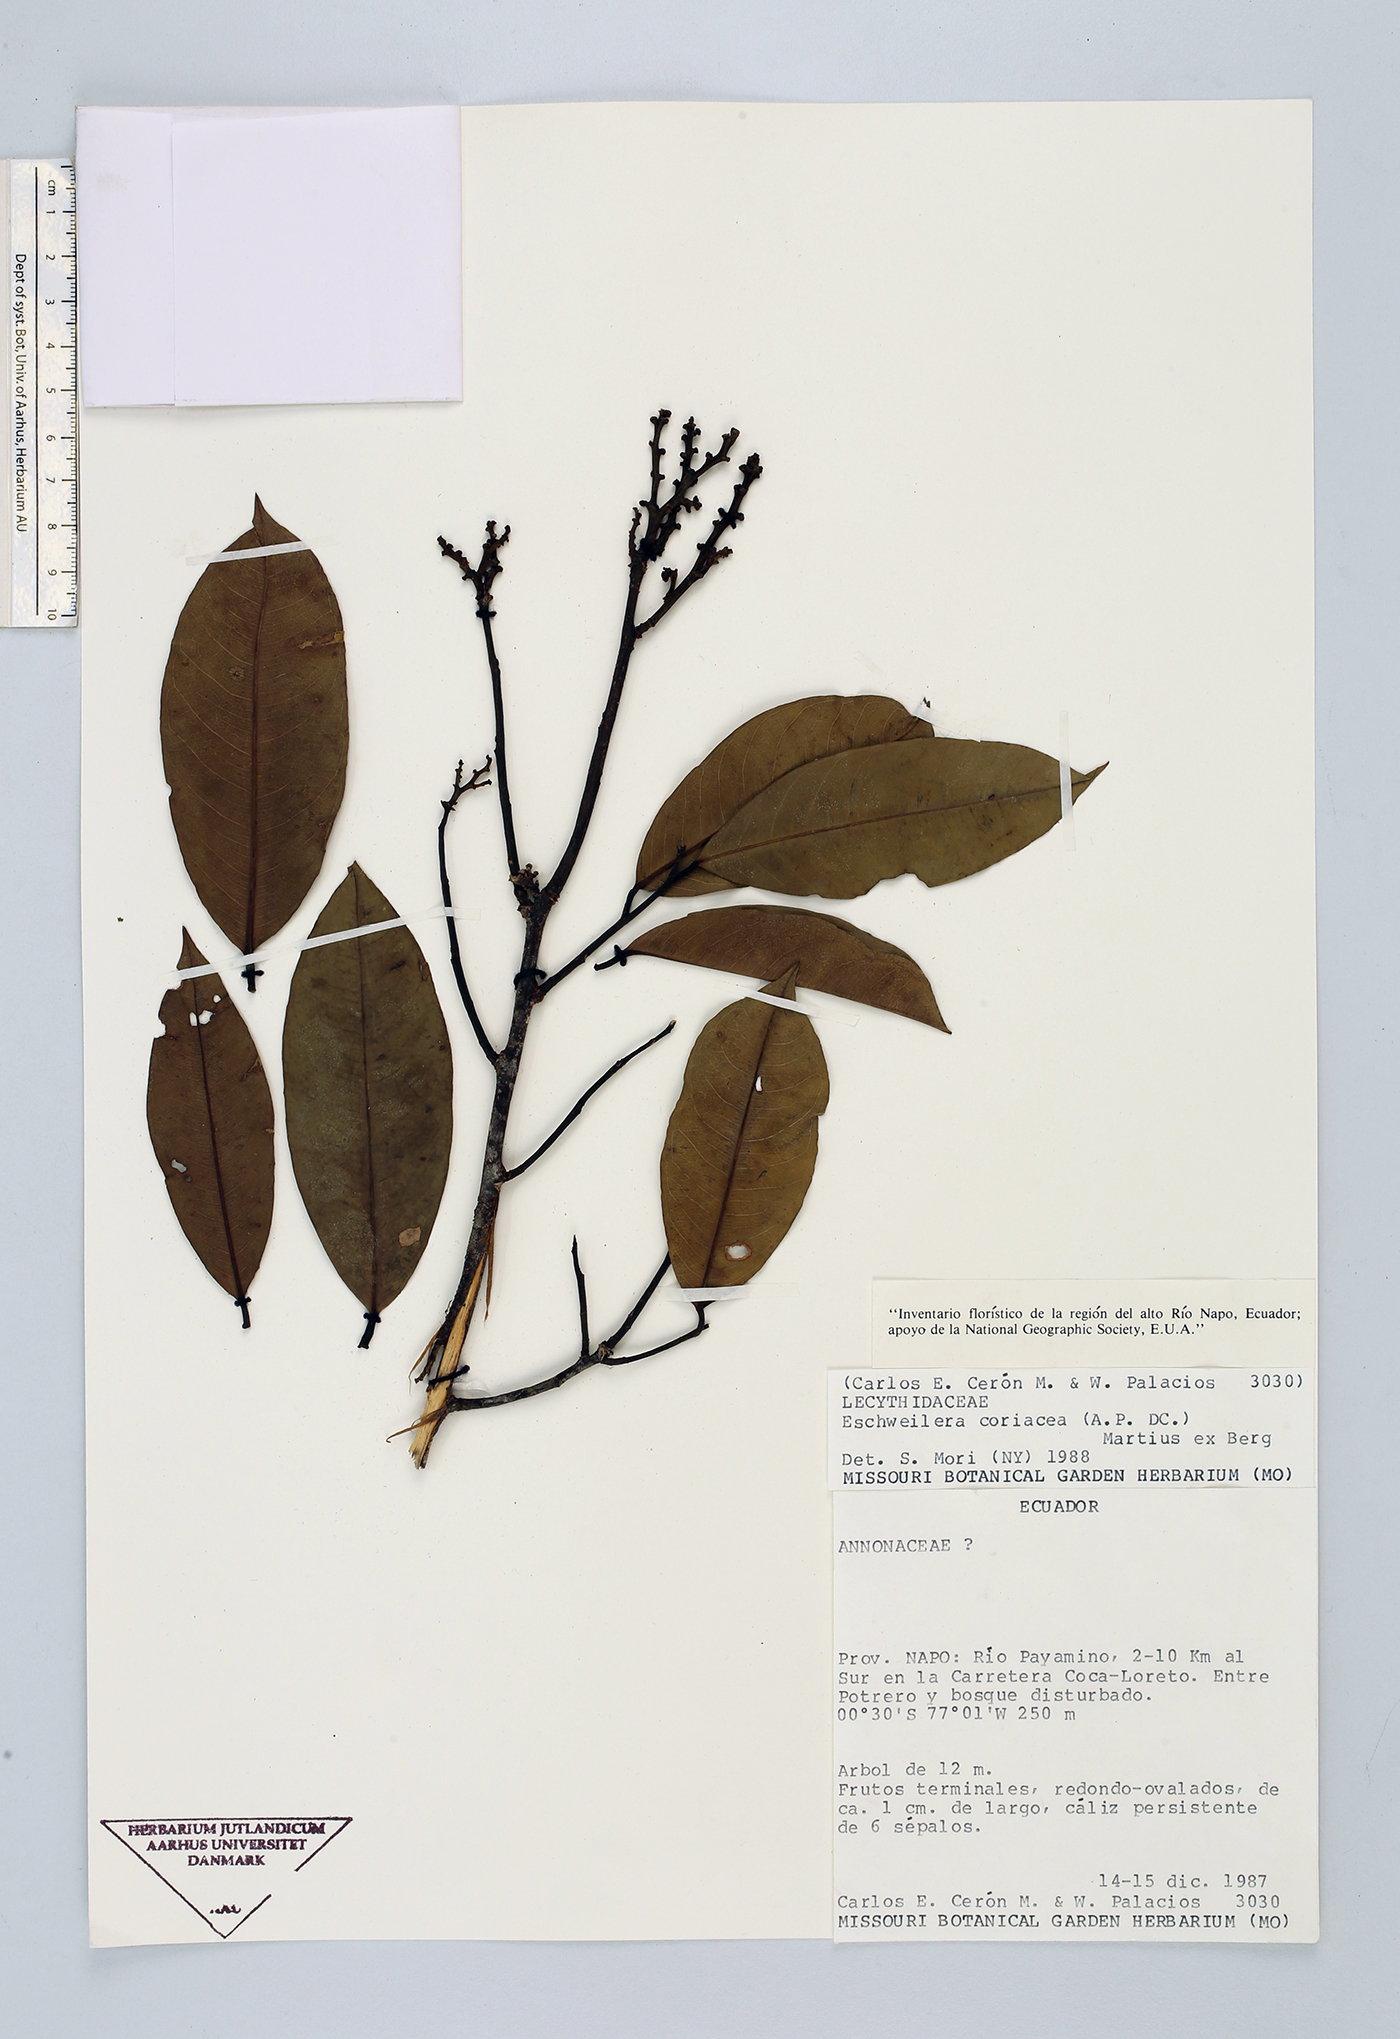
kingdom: Plantae
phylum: Tracheophyta
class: Magnoliopsida
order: Ericales
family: Lecythidaceae
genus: Eschweilera
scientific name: Eschweilera coriacea
